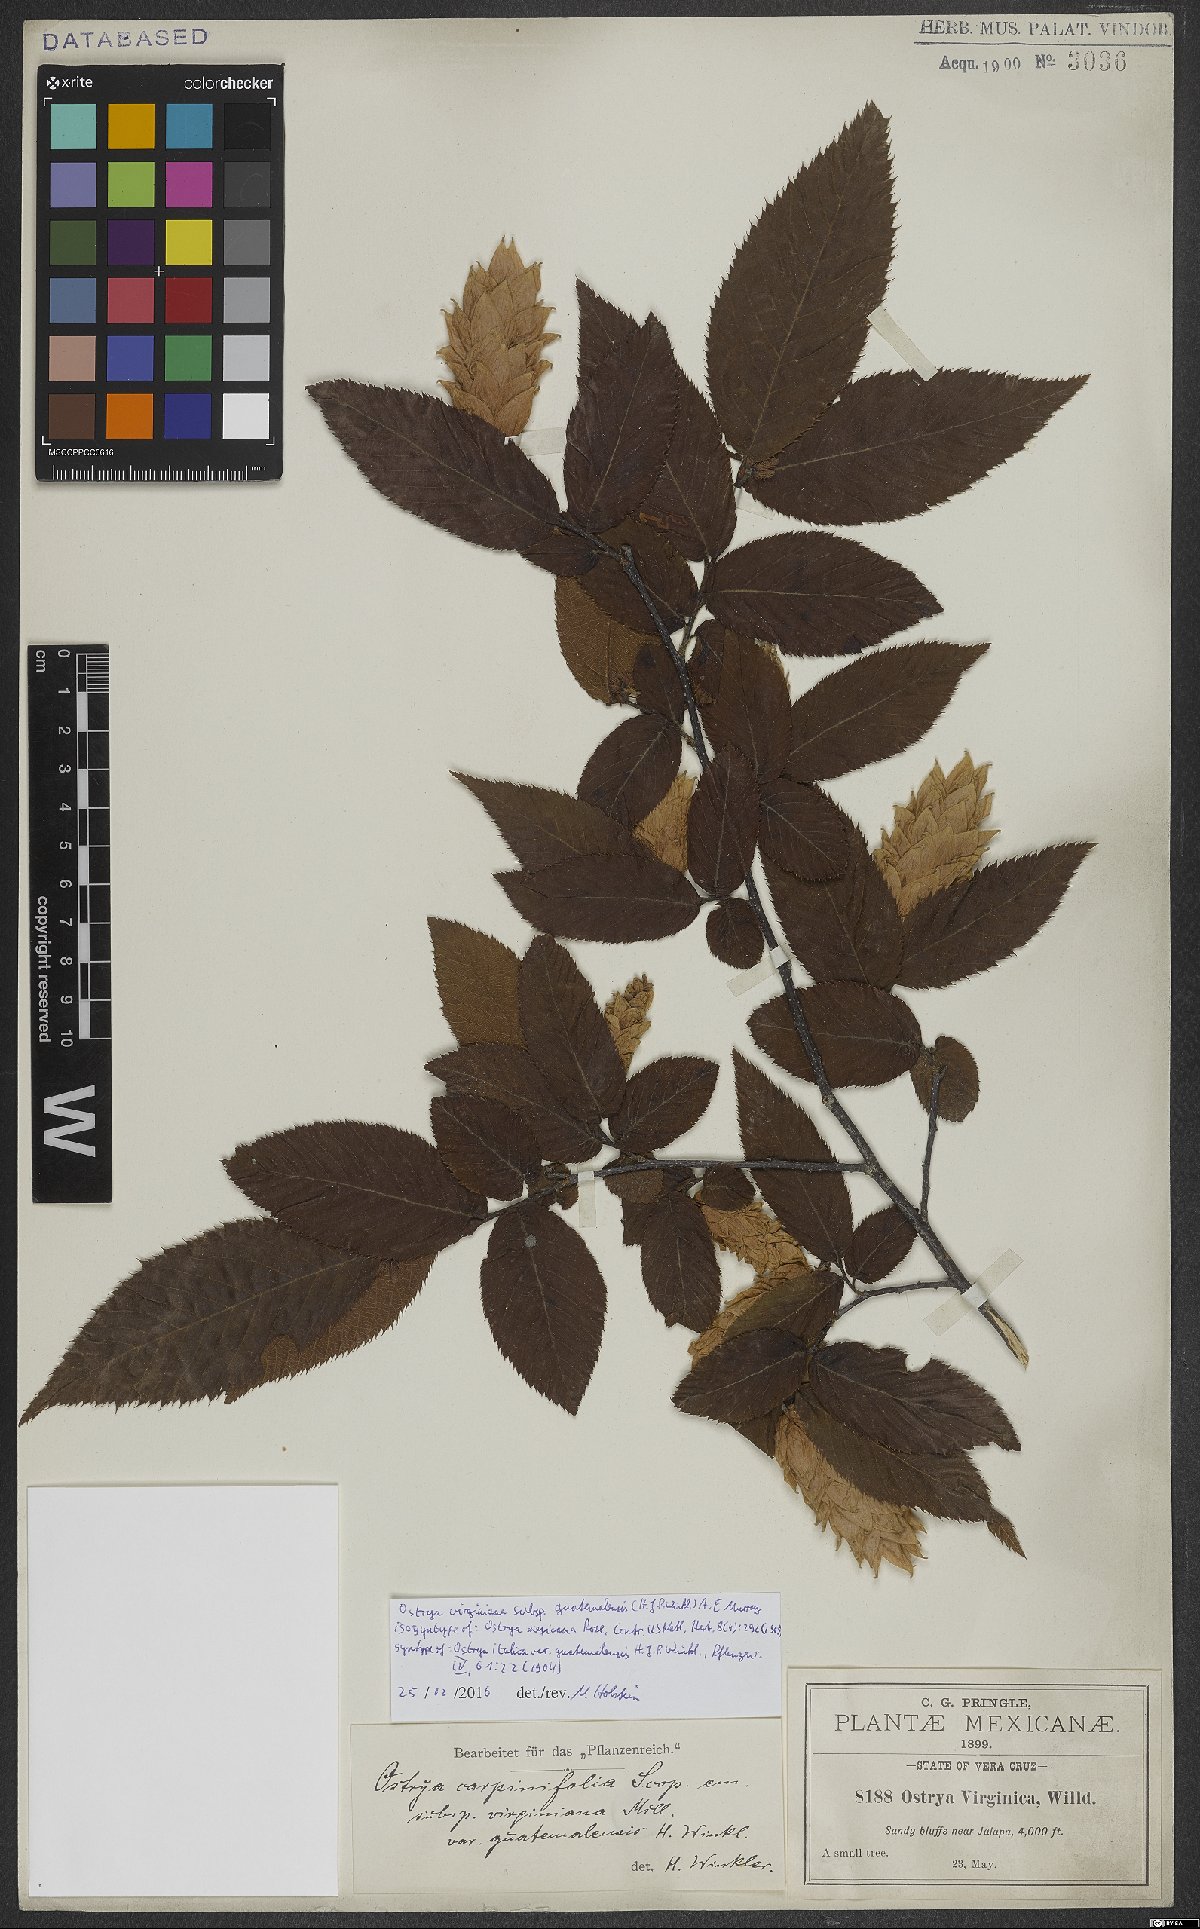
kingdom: Plantae
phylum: Tracheophyta
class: Magnoliopsida
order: Fagales
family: Betulaceae
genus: Ostrya
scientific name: Ostrya virginiana
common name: Ironwood
